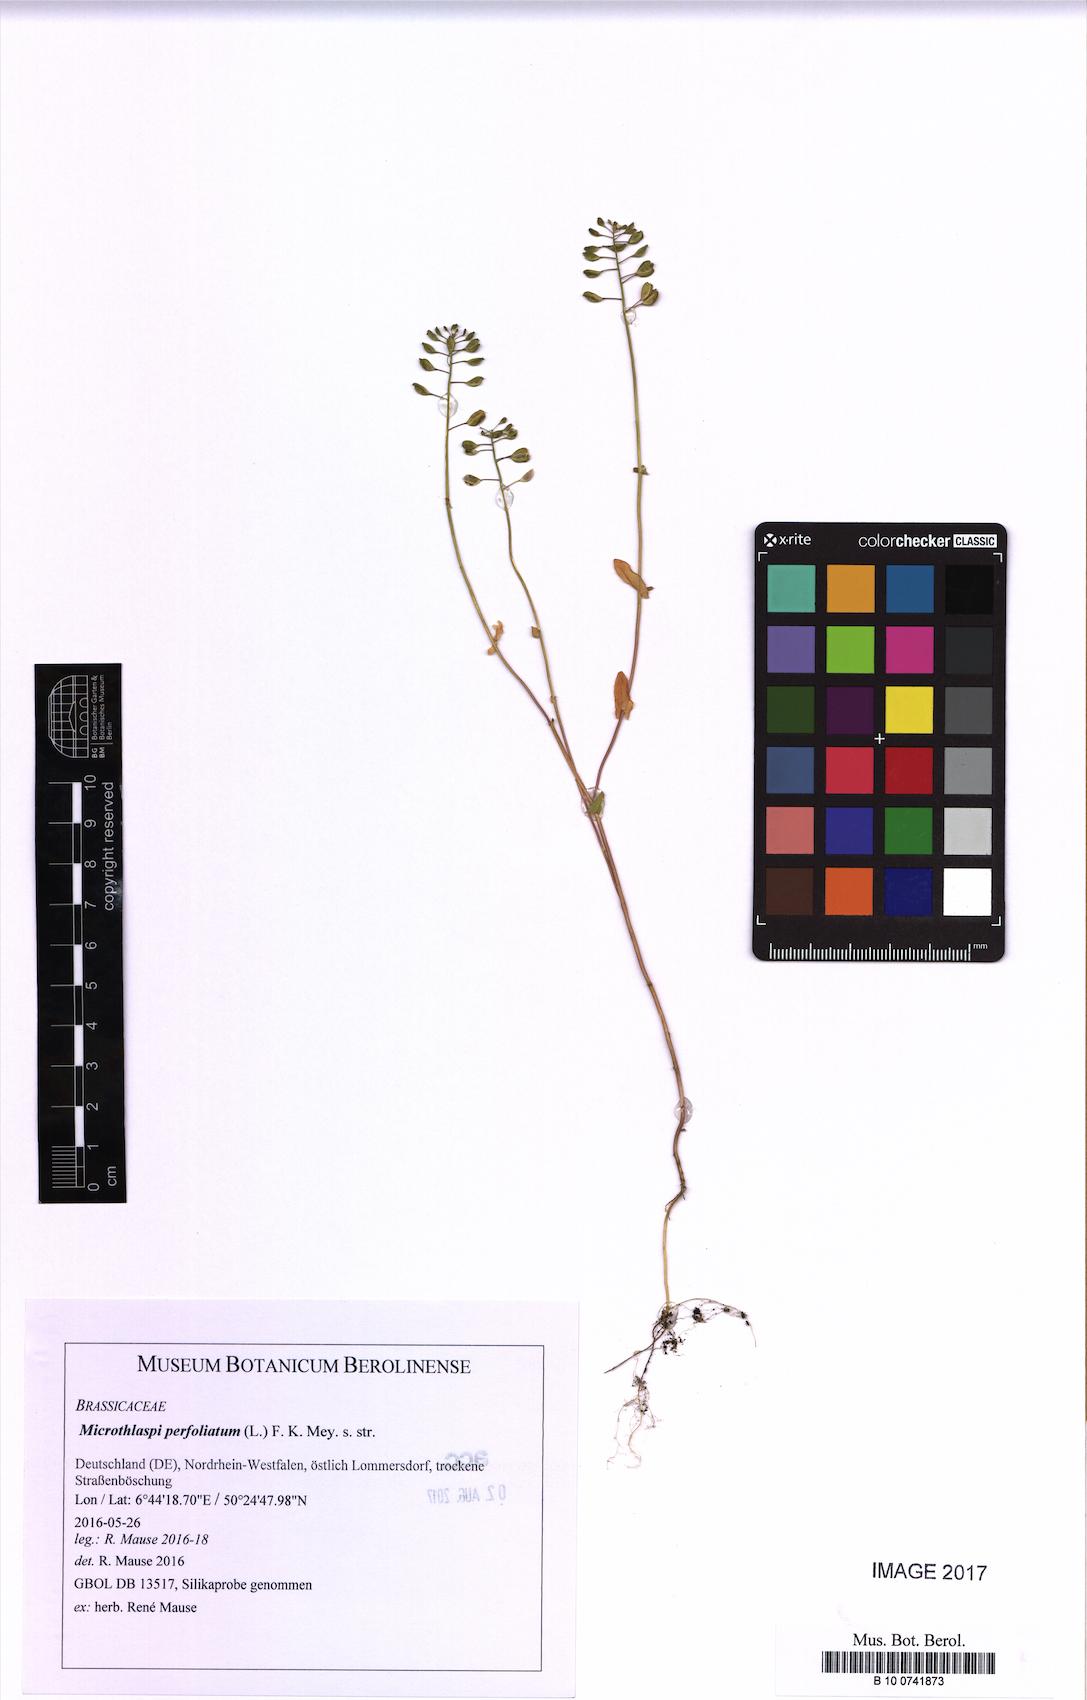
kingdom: Plantae
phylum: Tracheophyta
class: Magnoliopsida
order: Brassicales
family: Brassicaceae
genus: Noccaea
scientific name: Noccaea perfoliata
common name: Perfoliate pennycress
